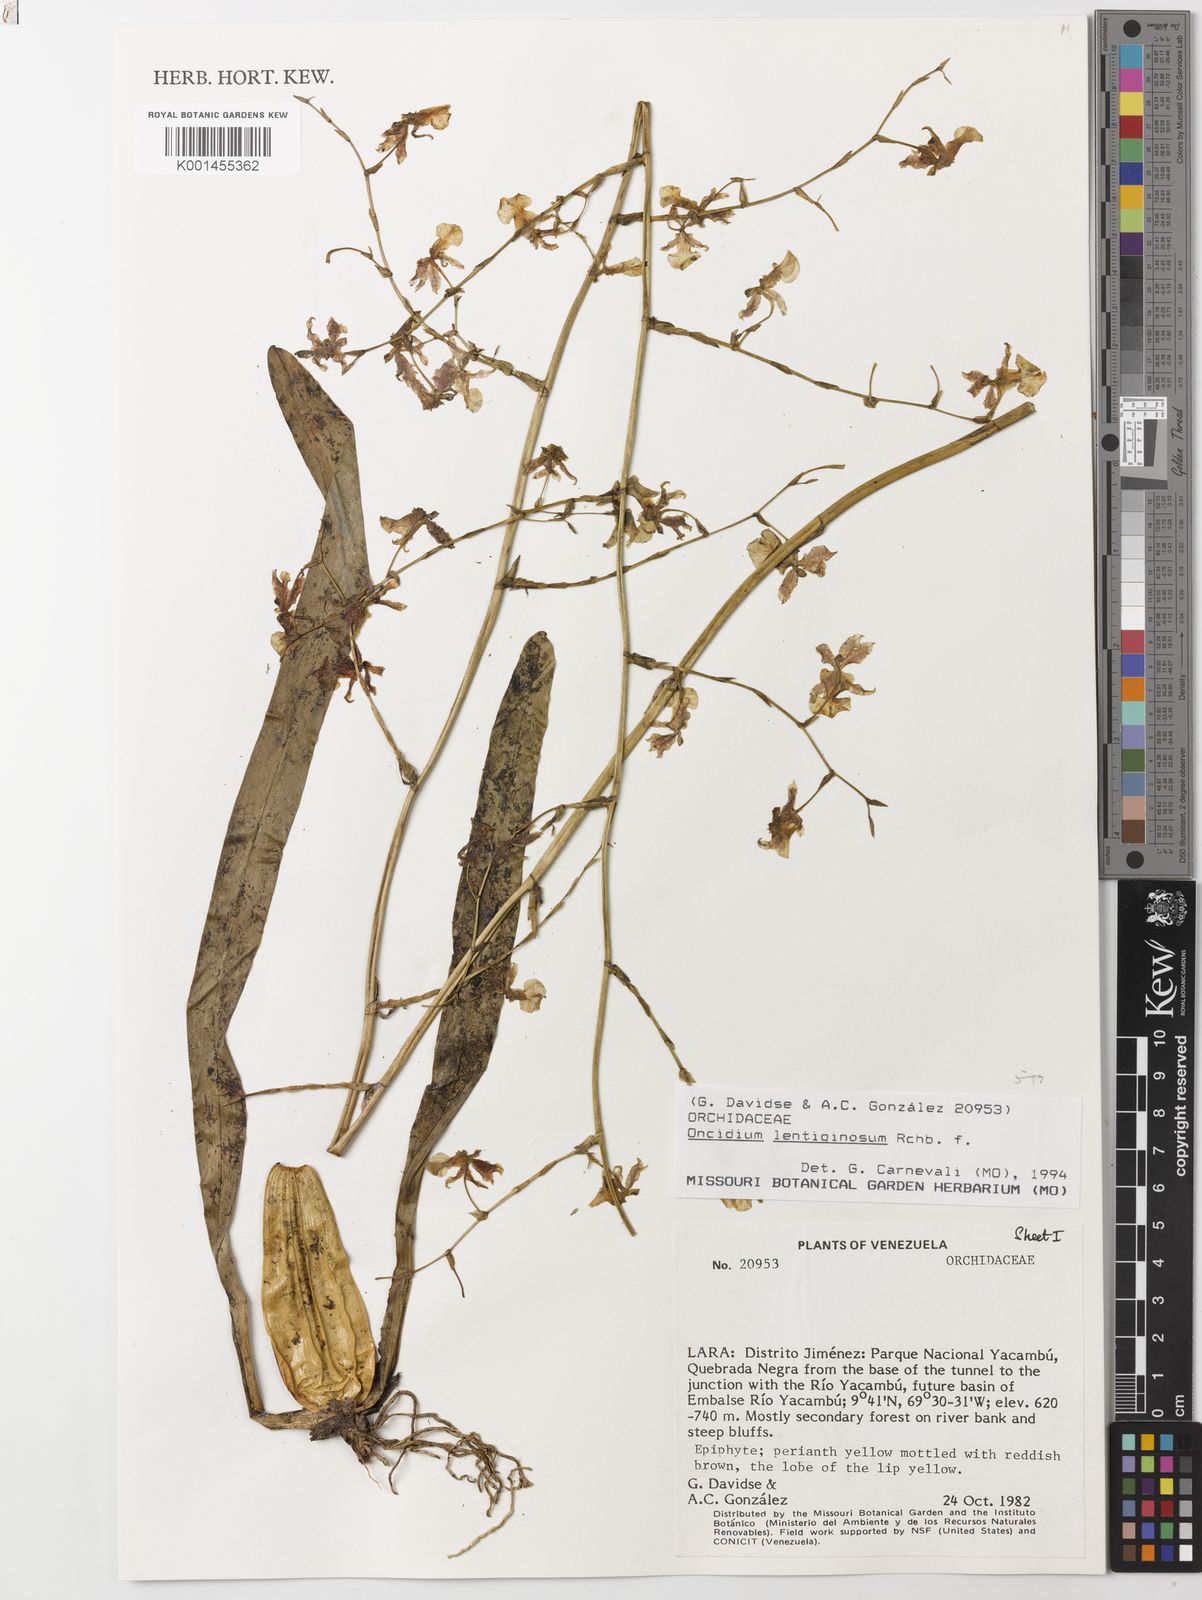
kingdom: Plantae
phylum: Tracheophyta
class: Liliopsida
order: Asparagales
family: Orchidaceae
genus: Oncidium
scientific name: Oncidium lentiginosum
